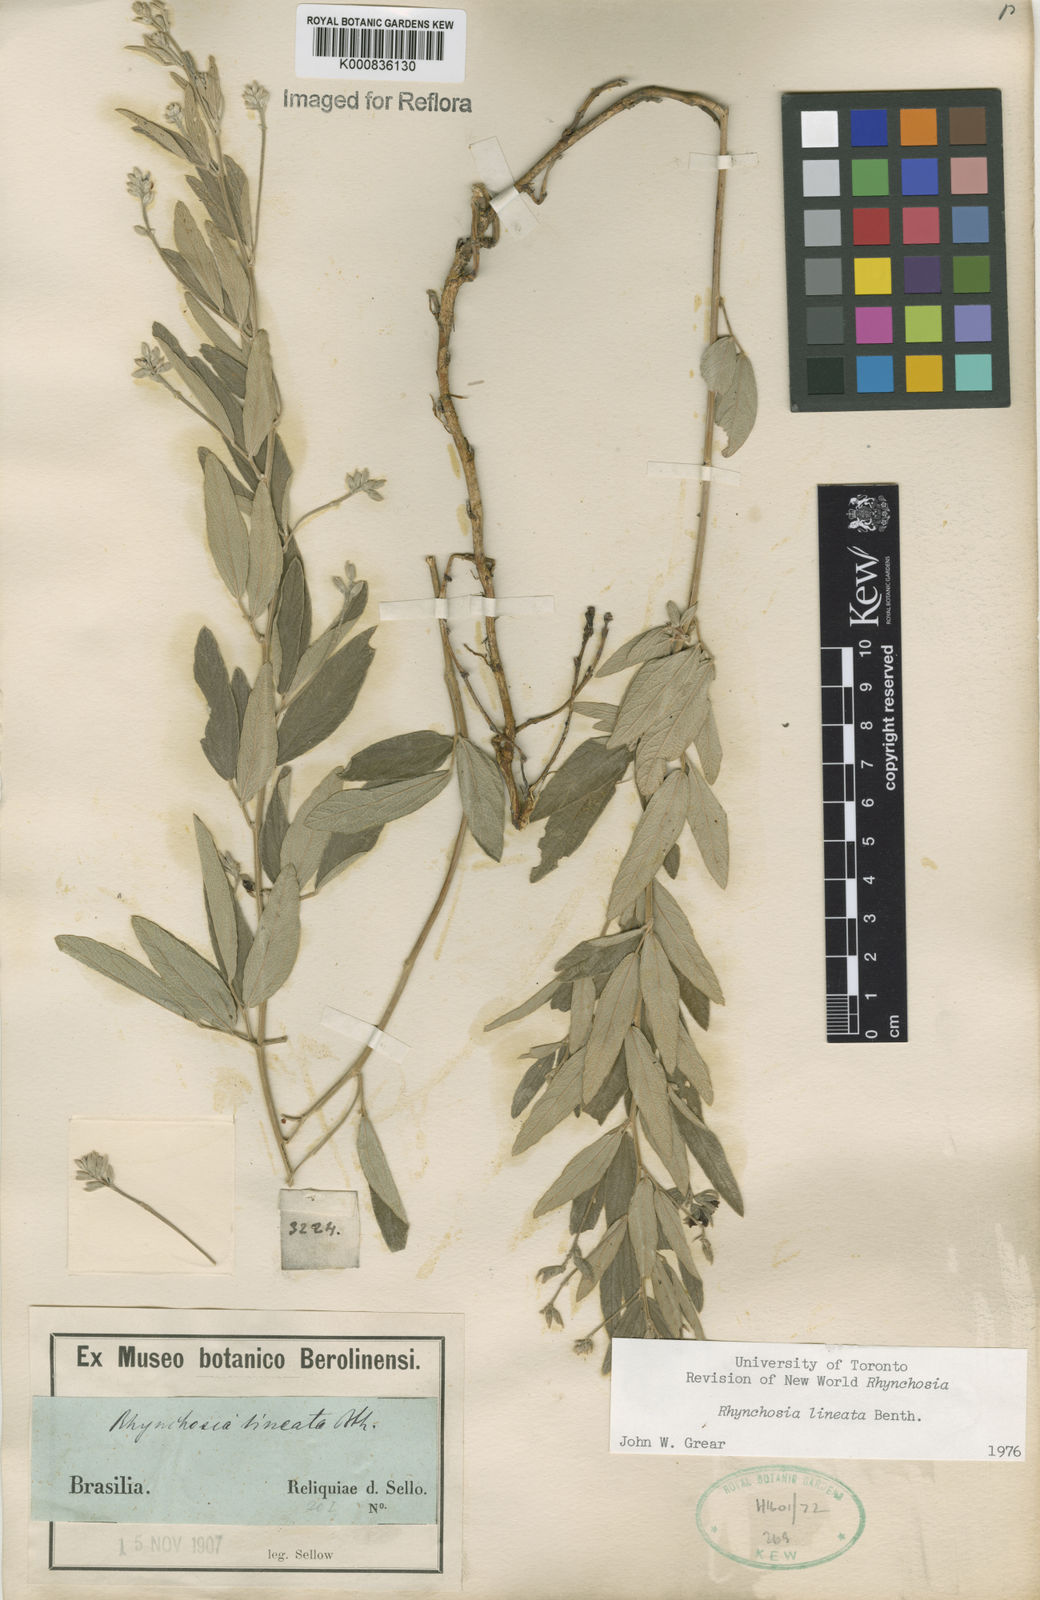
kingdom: Plantae
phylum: Tracheophyta
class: Magnoliopsida
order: Fabales
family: Fabaceae
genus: Rhynchosia
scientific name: Rhynchosia lineata
